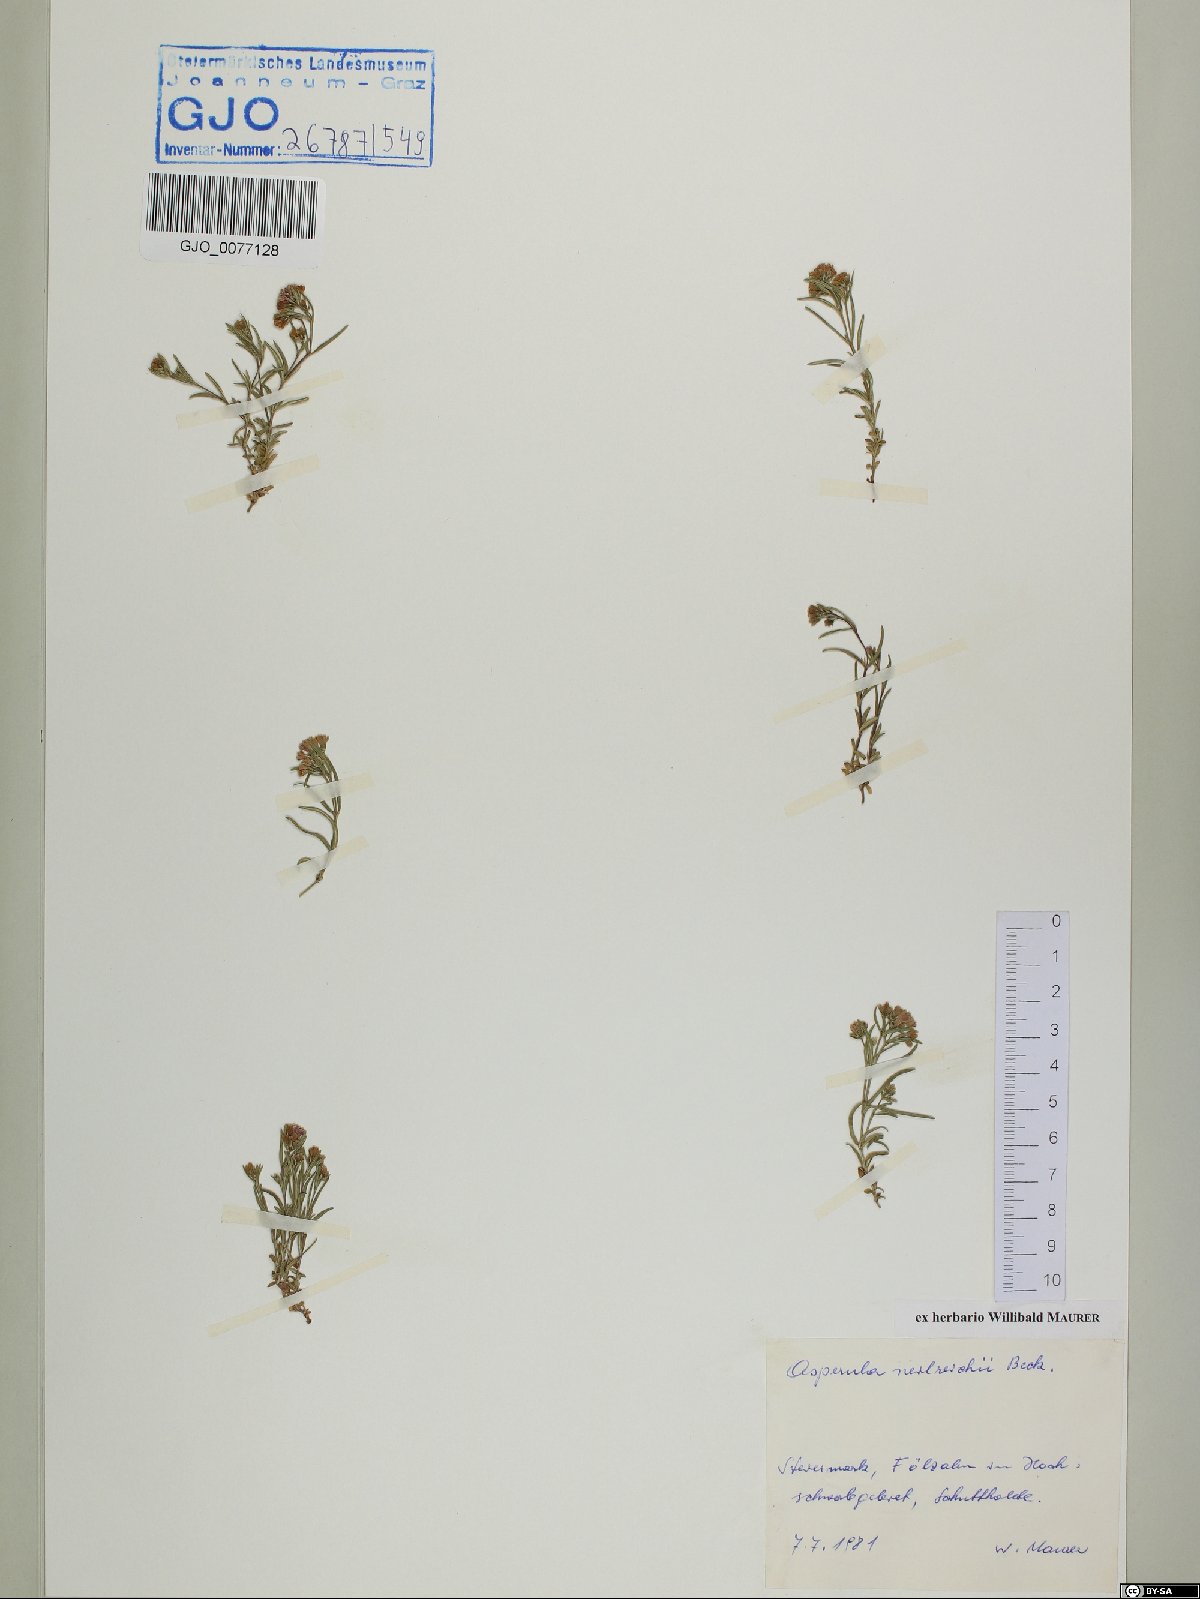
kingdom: Plantae
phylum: Tracheophyta
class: Magnoliopsida
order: Gentianales
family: Rubiaceae
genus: Cynanchica
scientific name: Cynanchica neilreichii
